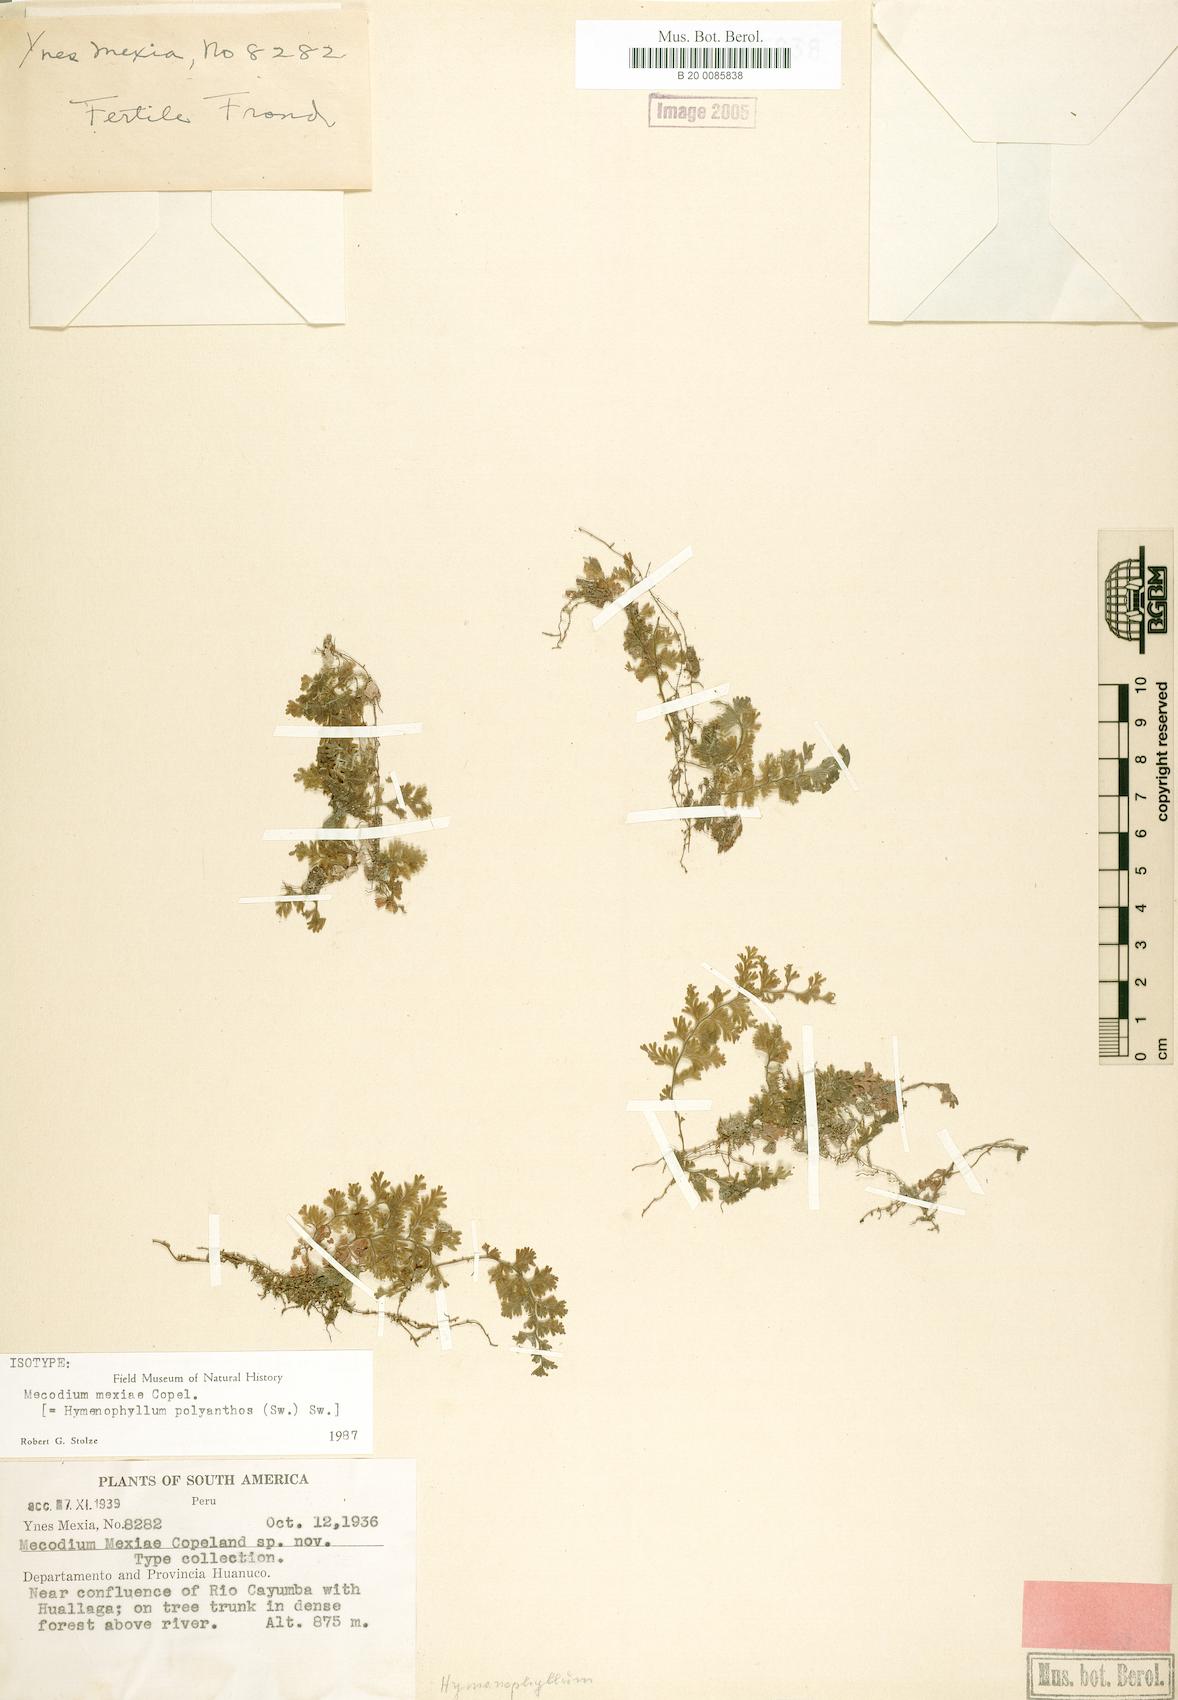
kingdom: Plantae
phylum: Tracheophyta
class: Polypodiopsida
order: Hymenophyllales
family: Hymenophyllaceae
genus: Hymenophyllum
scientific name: Hymenophyllum polyanthos
